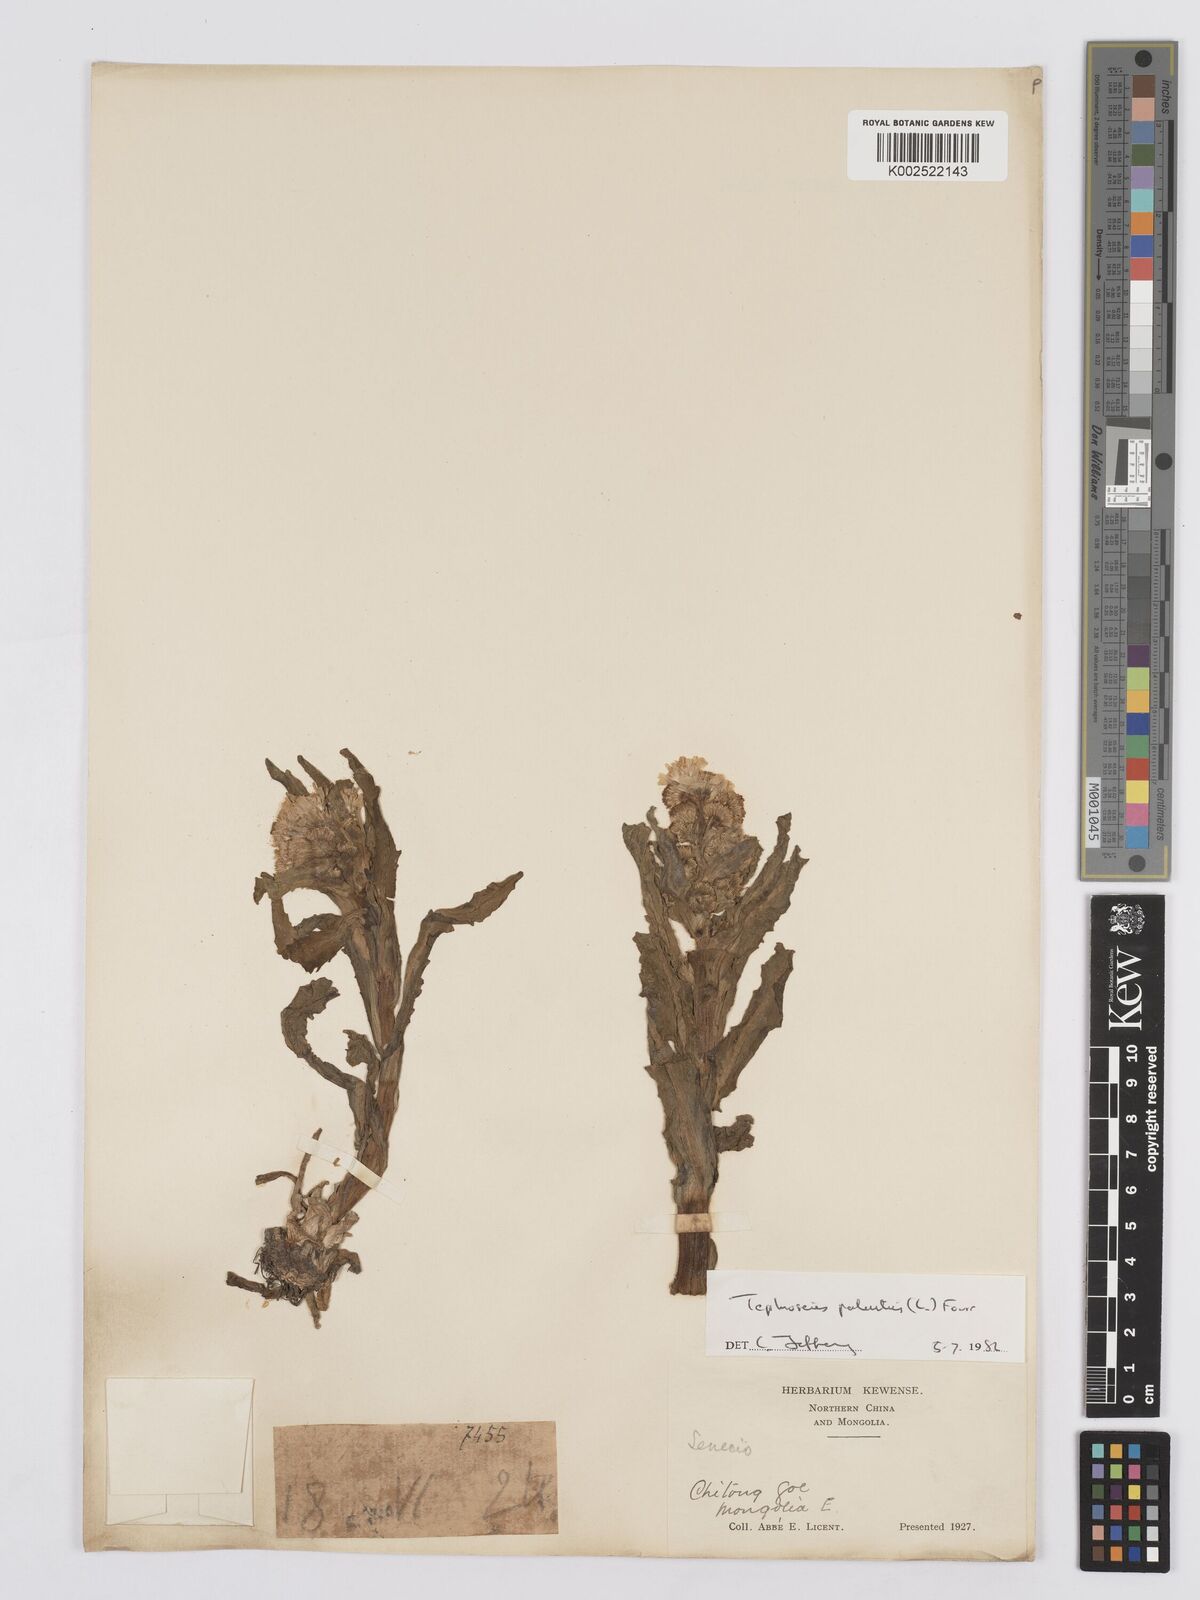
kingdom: Plantae
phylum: Tracheophyta
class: Magnoliopsida
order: Asterales
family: Asteraceae
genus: Tephroseris
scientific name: Tephroseris palustris
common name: Marsh fleawort
